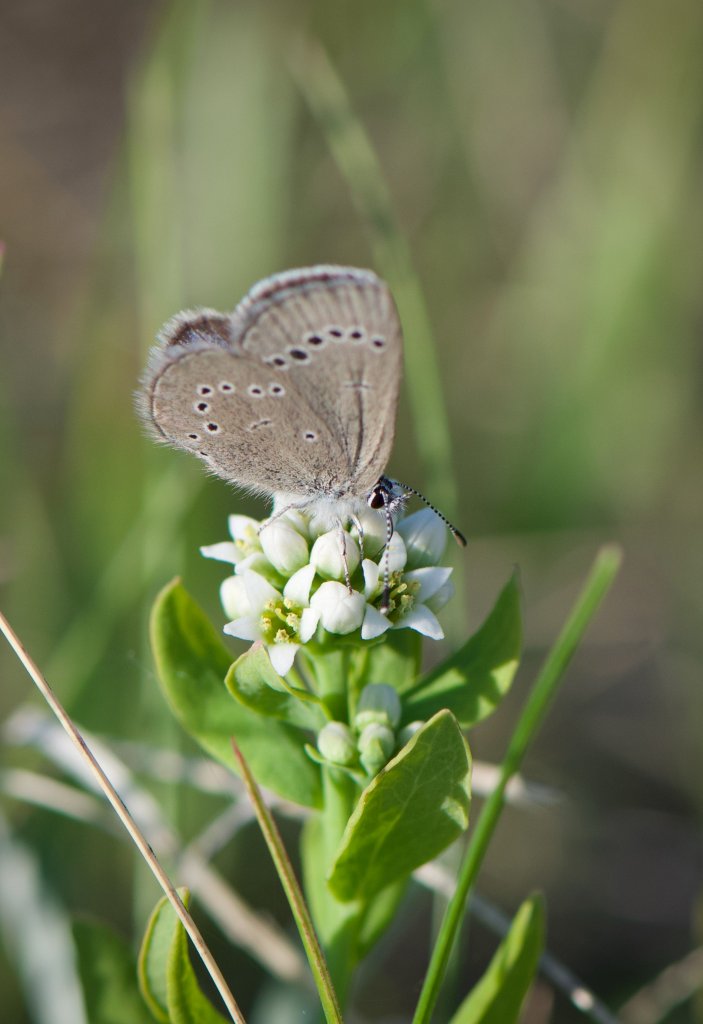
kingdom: Animalia
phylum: Arthropoda
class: Insecta
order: Lepidoptera
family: Lycaenidae
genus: Glaucopsyche
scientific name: Glaucopsyche lygdamus
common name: Silvery Blue
